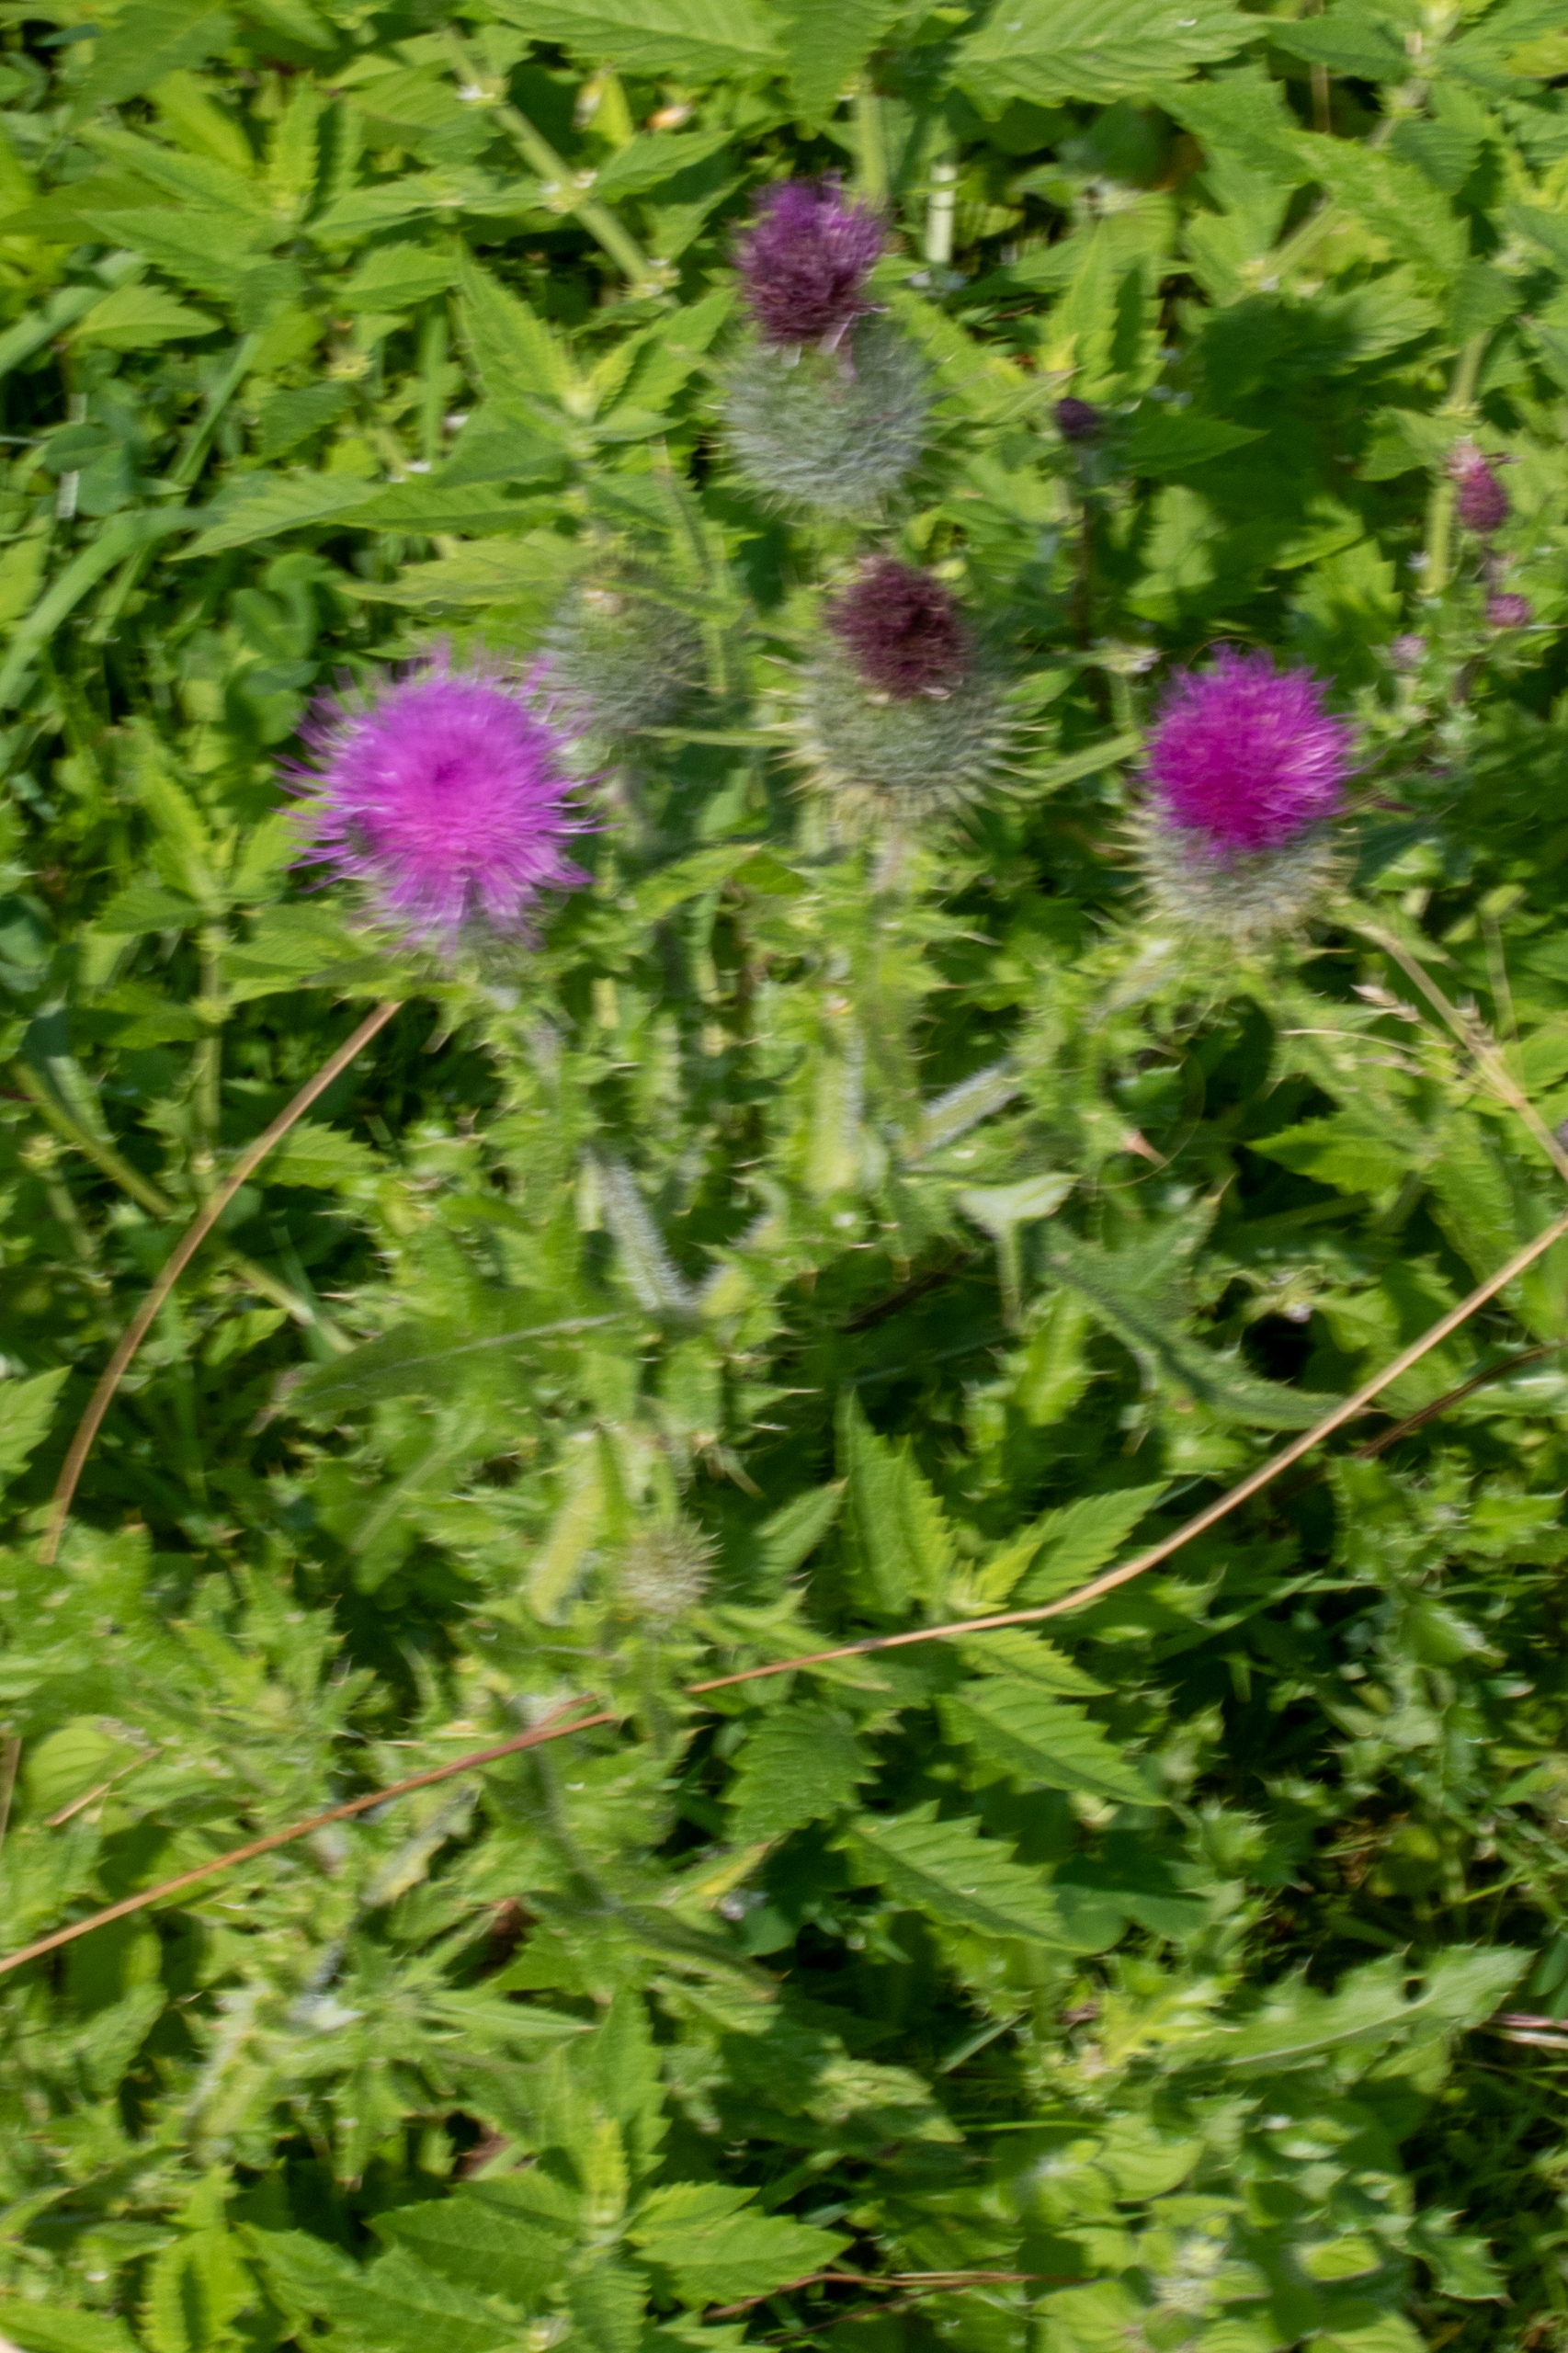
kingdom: Plantae
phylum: Tracheophyta
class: Magnoliopsida
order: Asterales
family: Asteraceae
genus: Cirsium
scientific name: Cirsium vulgare
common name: Horse-tidsel
